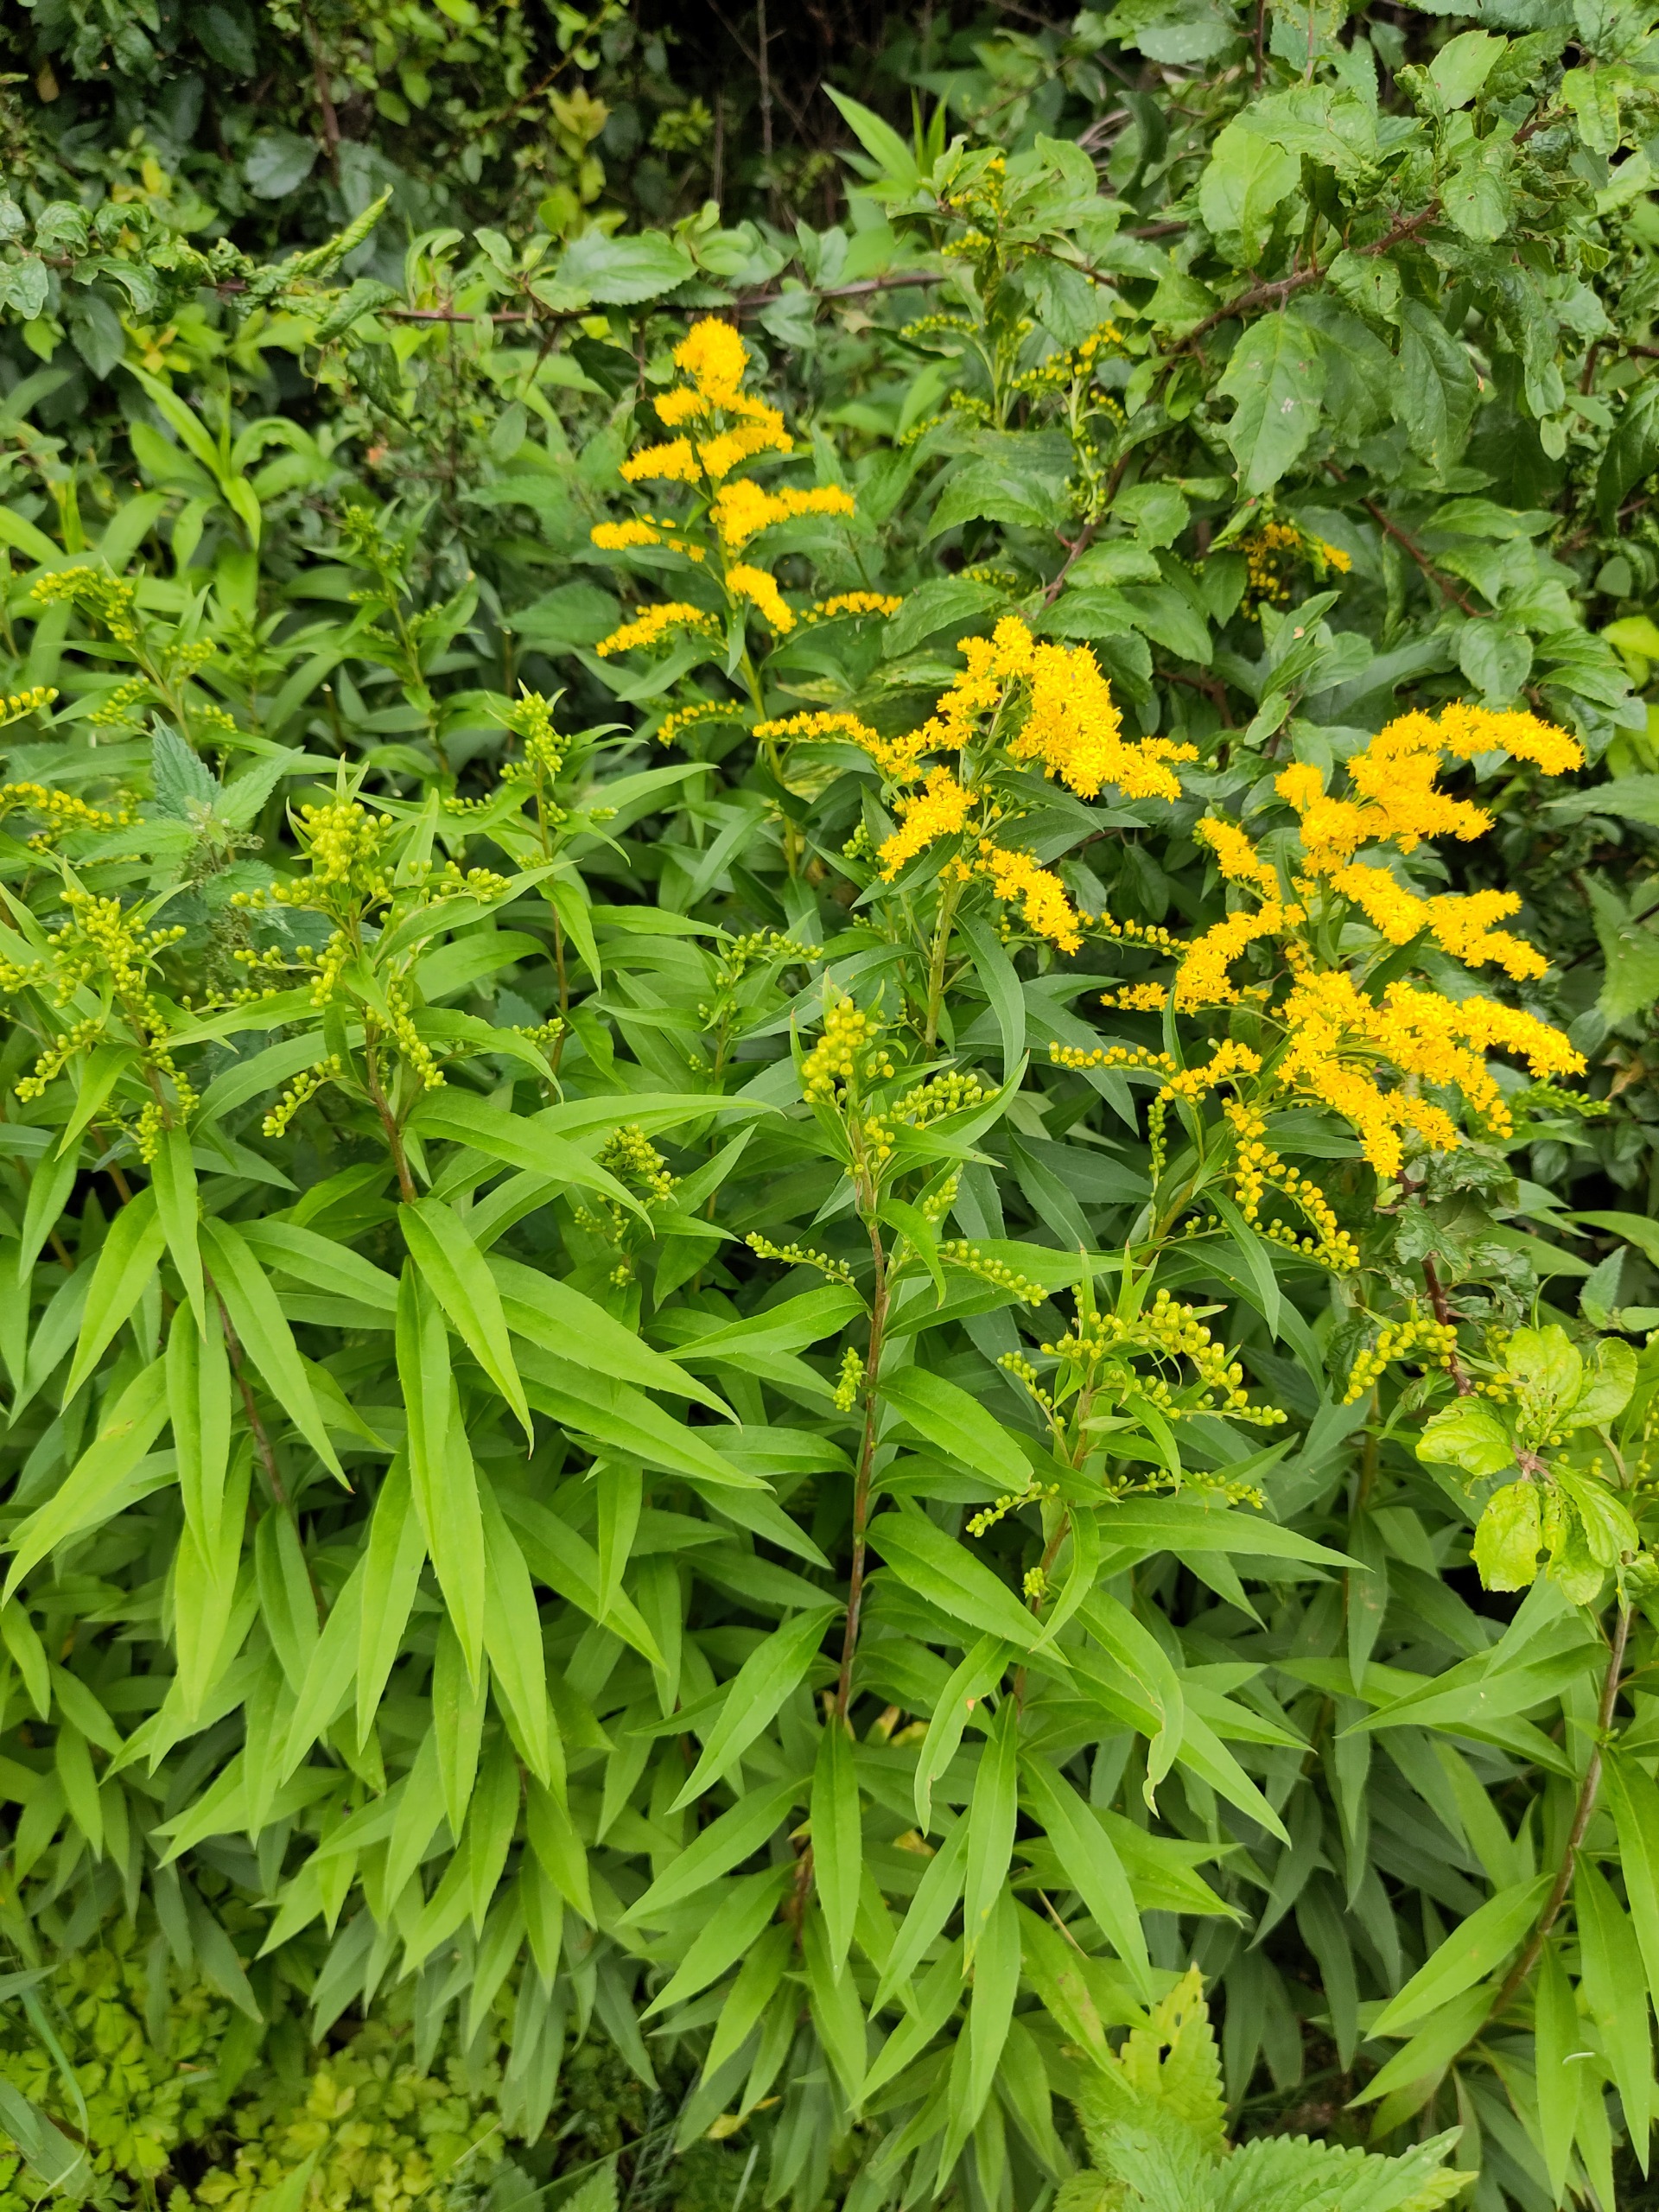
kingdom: Plantae
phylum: Tracheophyta
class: Magnoliopsida
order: Asterales
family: Asteraceae
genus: Solidago
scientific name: Solidago gigantea
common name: Sildig gyldenris
